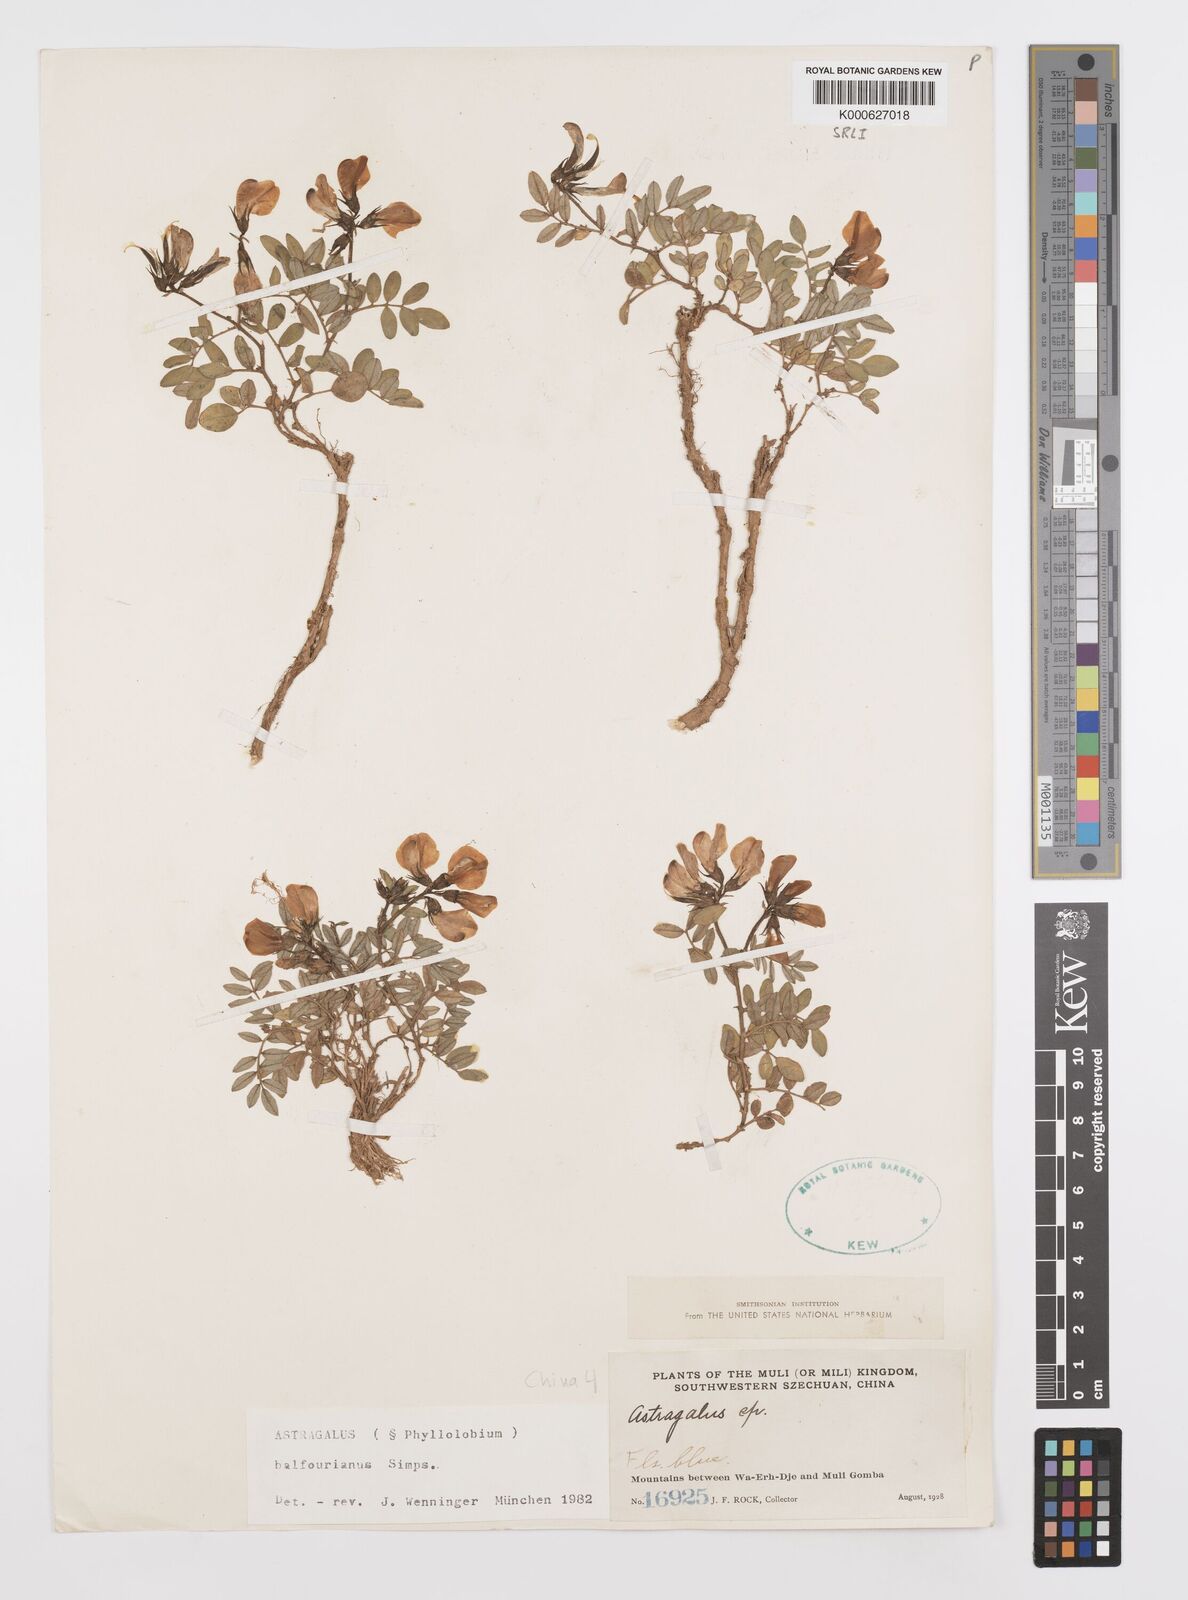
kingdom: Plantae
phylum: Tracheophyta
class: Magnoliopsida
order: Fabales
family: Fabaceae
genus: Phyllolobium
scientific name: Phyllolobium balfourianum
